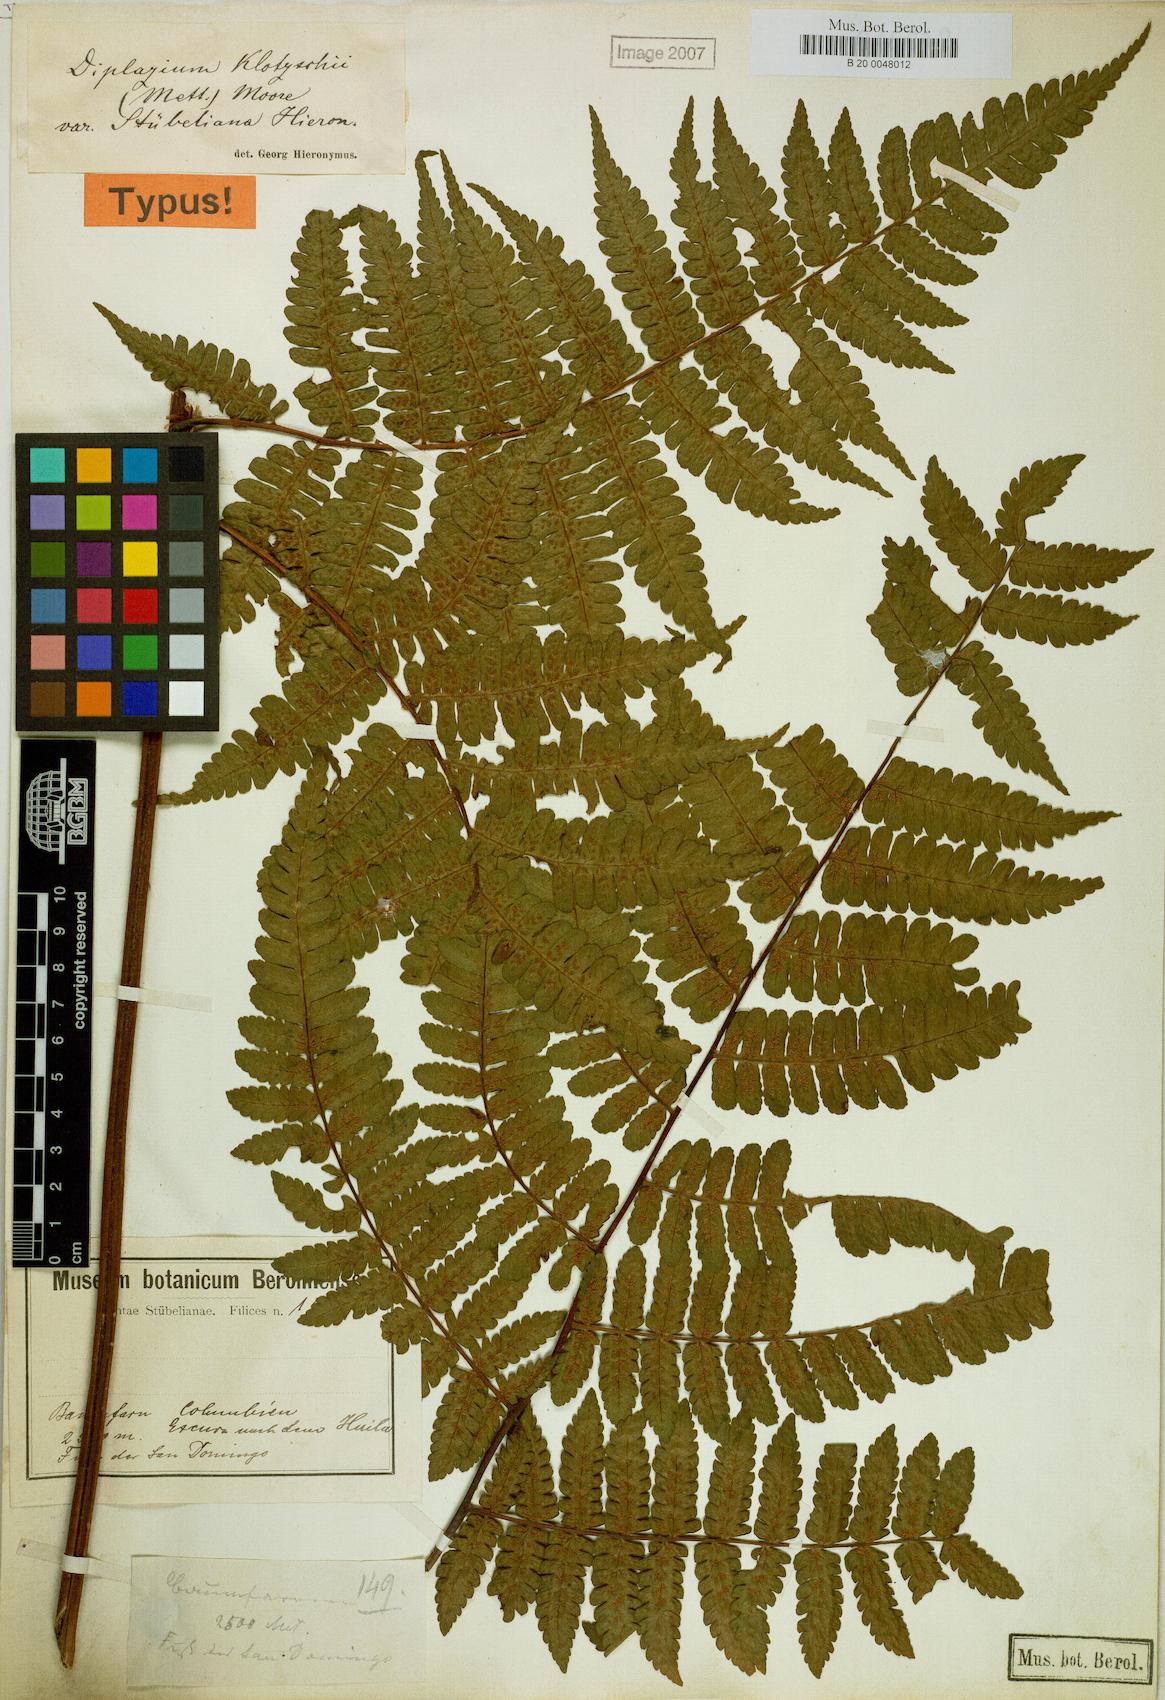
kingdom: Plantae
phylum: Tracheophyta
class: Polypodiopsida
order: Polypodiales
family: Athyriaceae
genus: Diplazium
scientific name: Diplazium diplazioides
